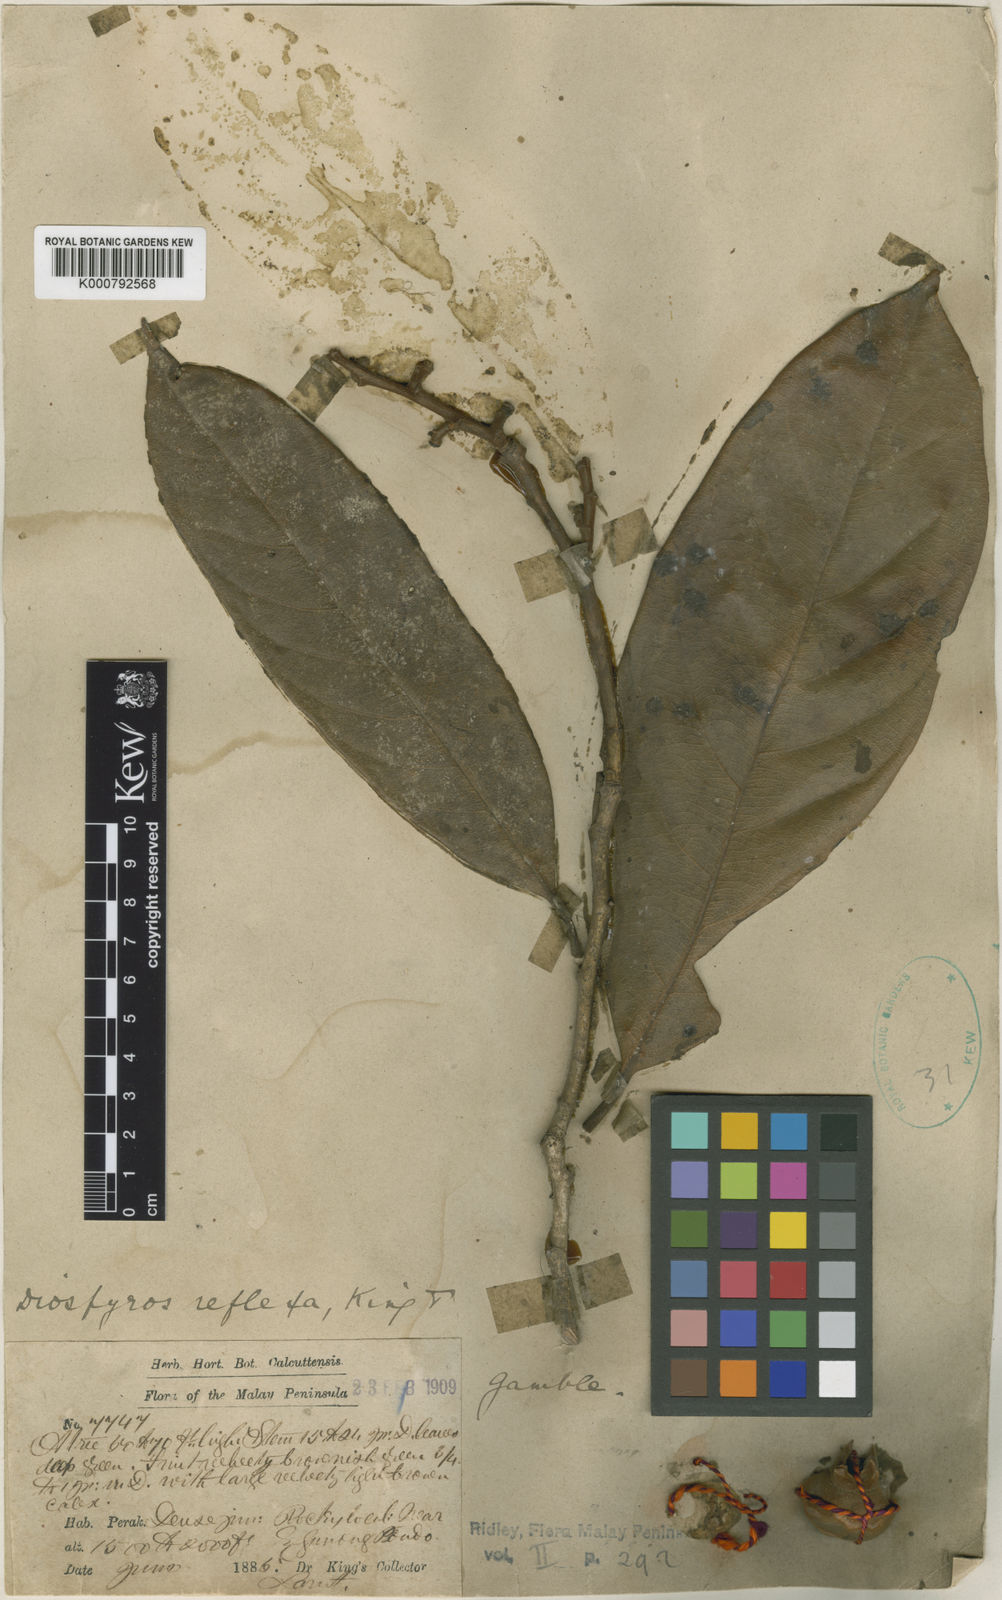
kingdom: Plantae
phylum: Tracheophyta
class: Magnoliopsida
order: Ericales
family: Ebenaceae
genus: Diospyros
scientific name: Diospyros pyrrhocarpa
